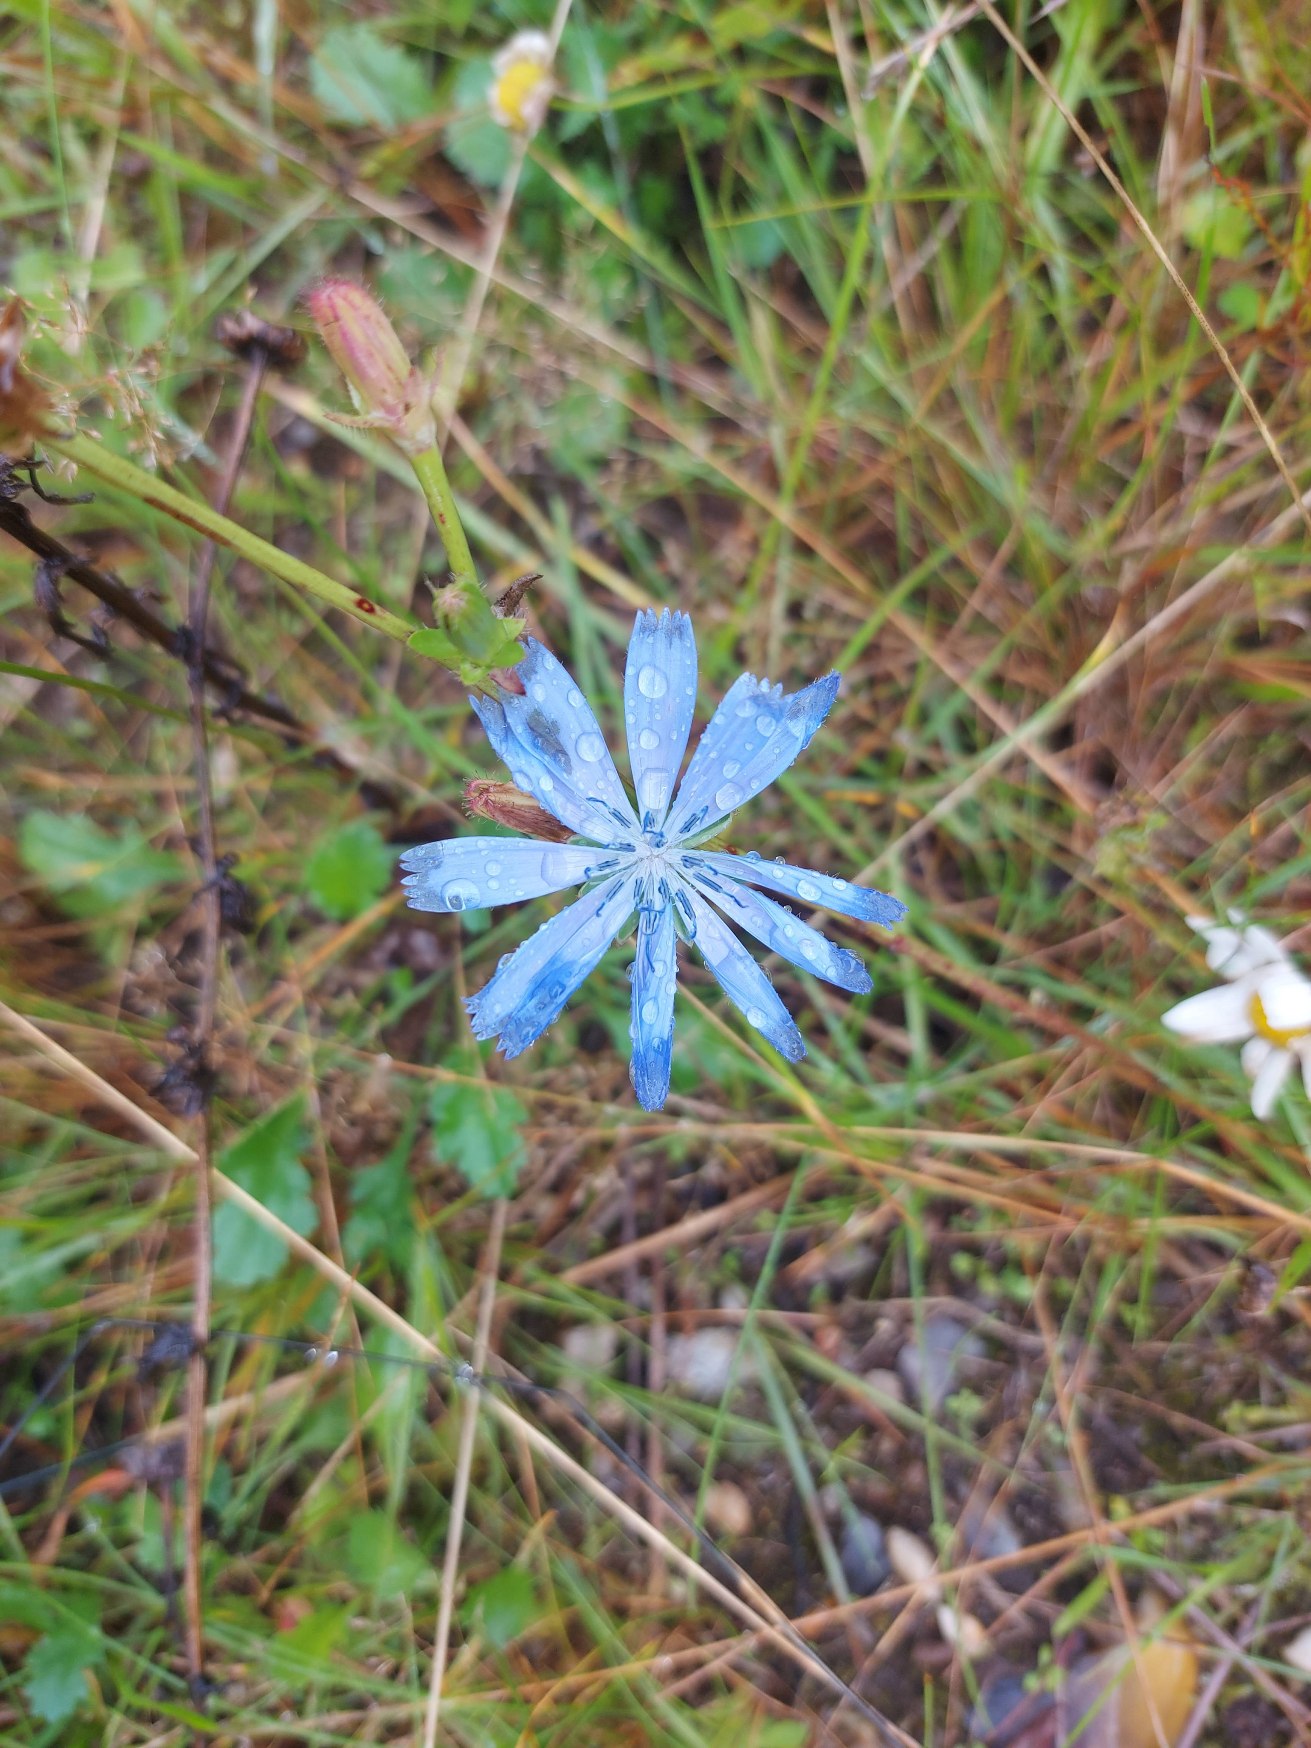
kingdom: Plantae
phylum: Tracheophyta
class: Magnoliopsida
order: Asterales
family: Asteraceae
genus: Cichorium
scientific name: Cichorium intybus
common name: Cikorie
